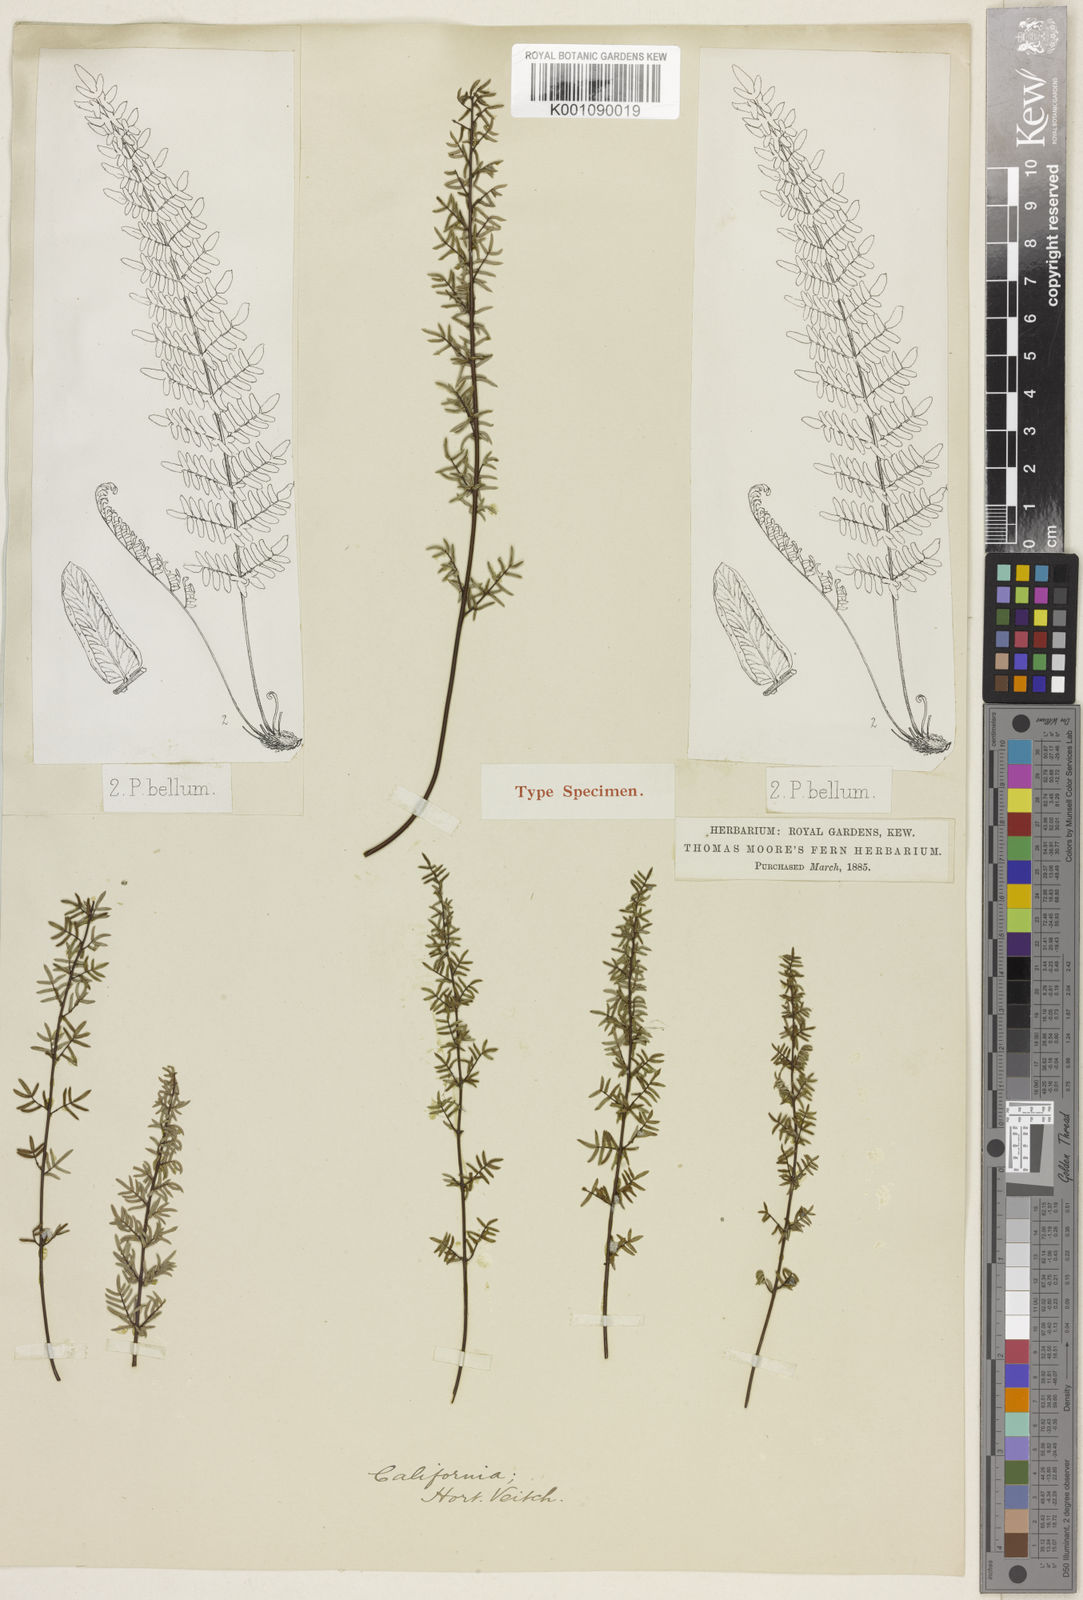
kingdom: Plantae
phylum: Tracheophyta
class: Polypodiopsida
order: Polypodiales
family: Pteridaceae
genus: Pellaea
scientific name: Pellaea brachyptera
